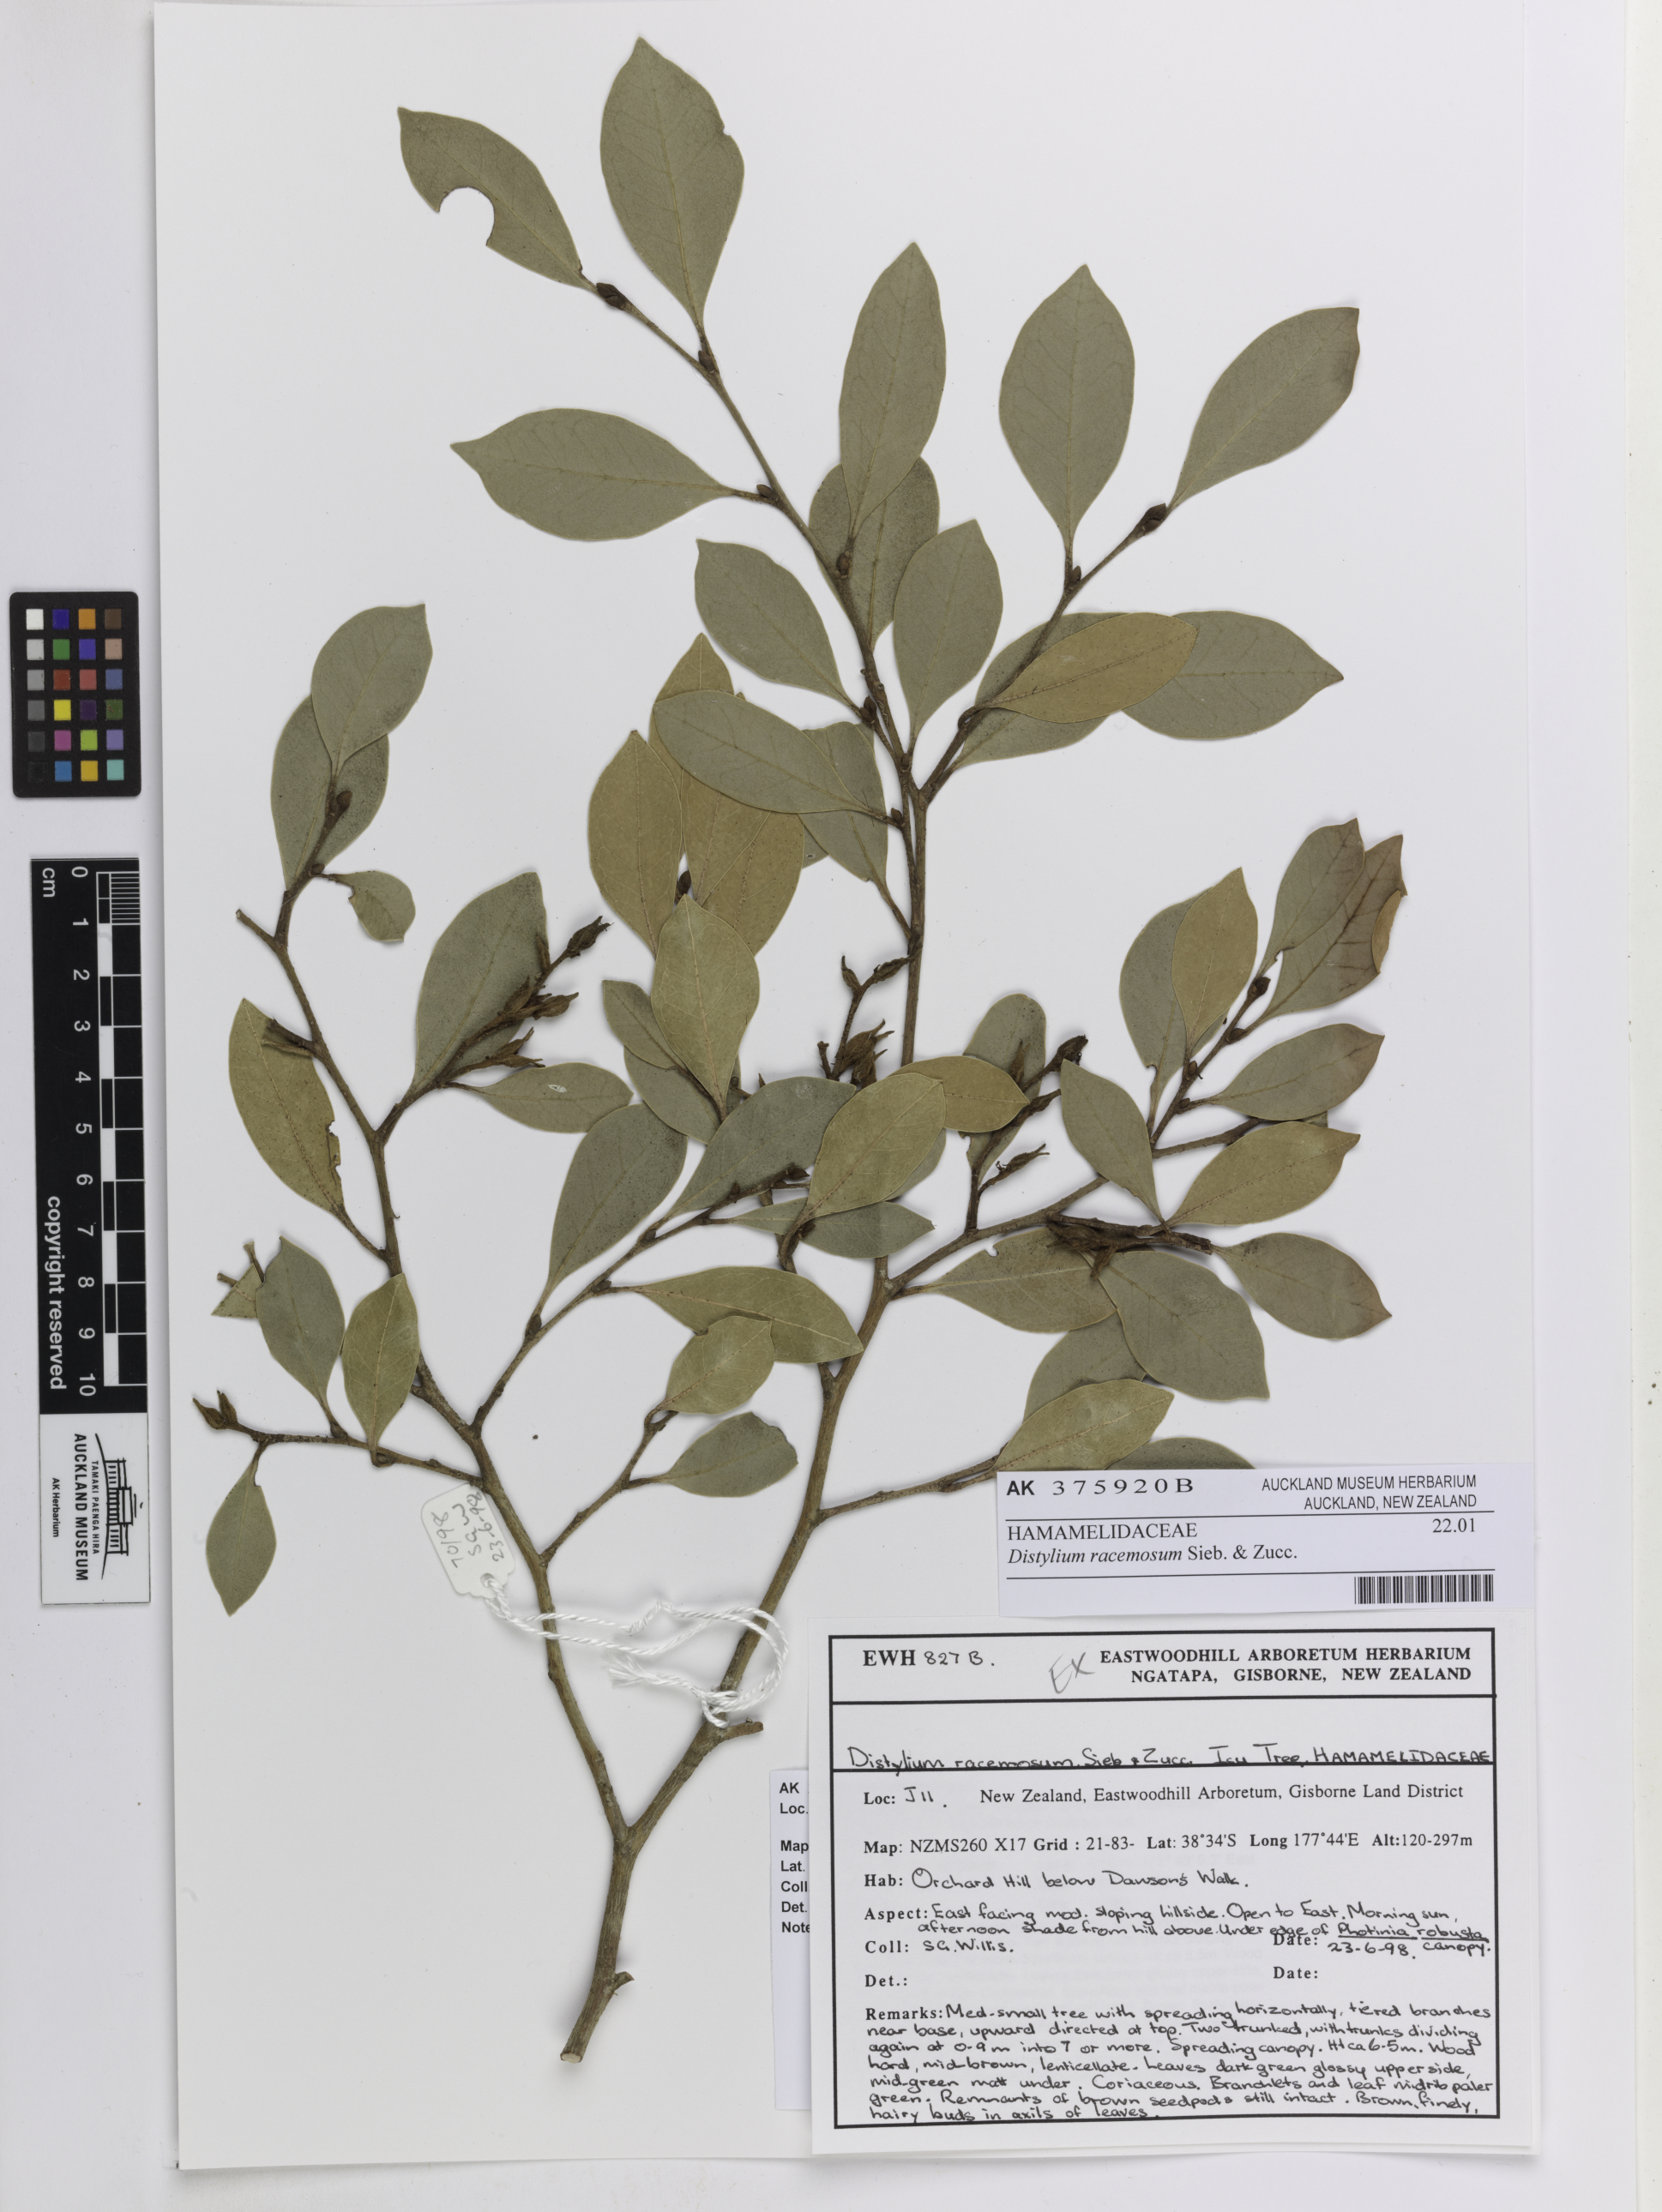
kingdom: Plantae
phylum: Tracheophyta
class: Magnoliopsida
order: Saxifragales
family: Hamamelidaceae
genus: Distylium
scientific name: Distylium racemosum
